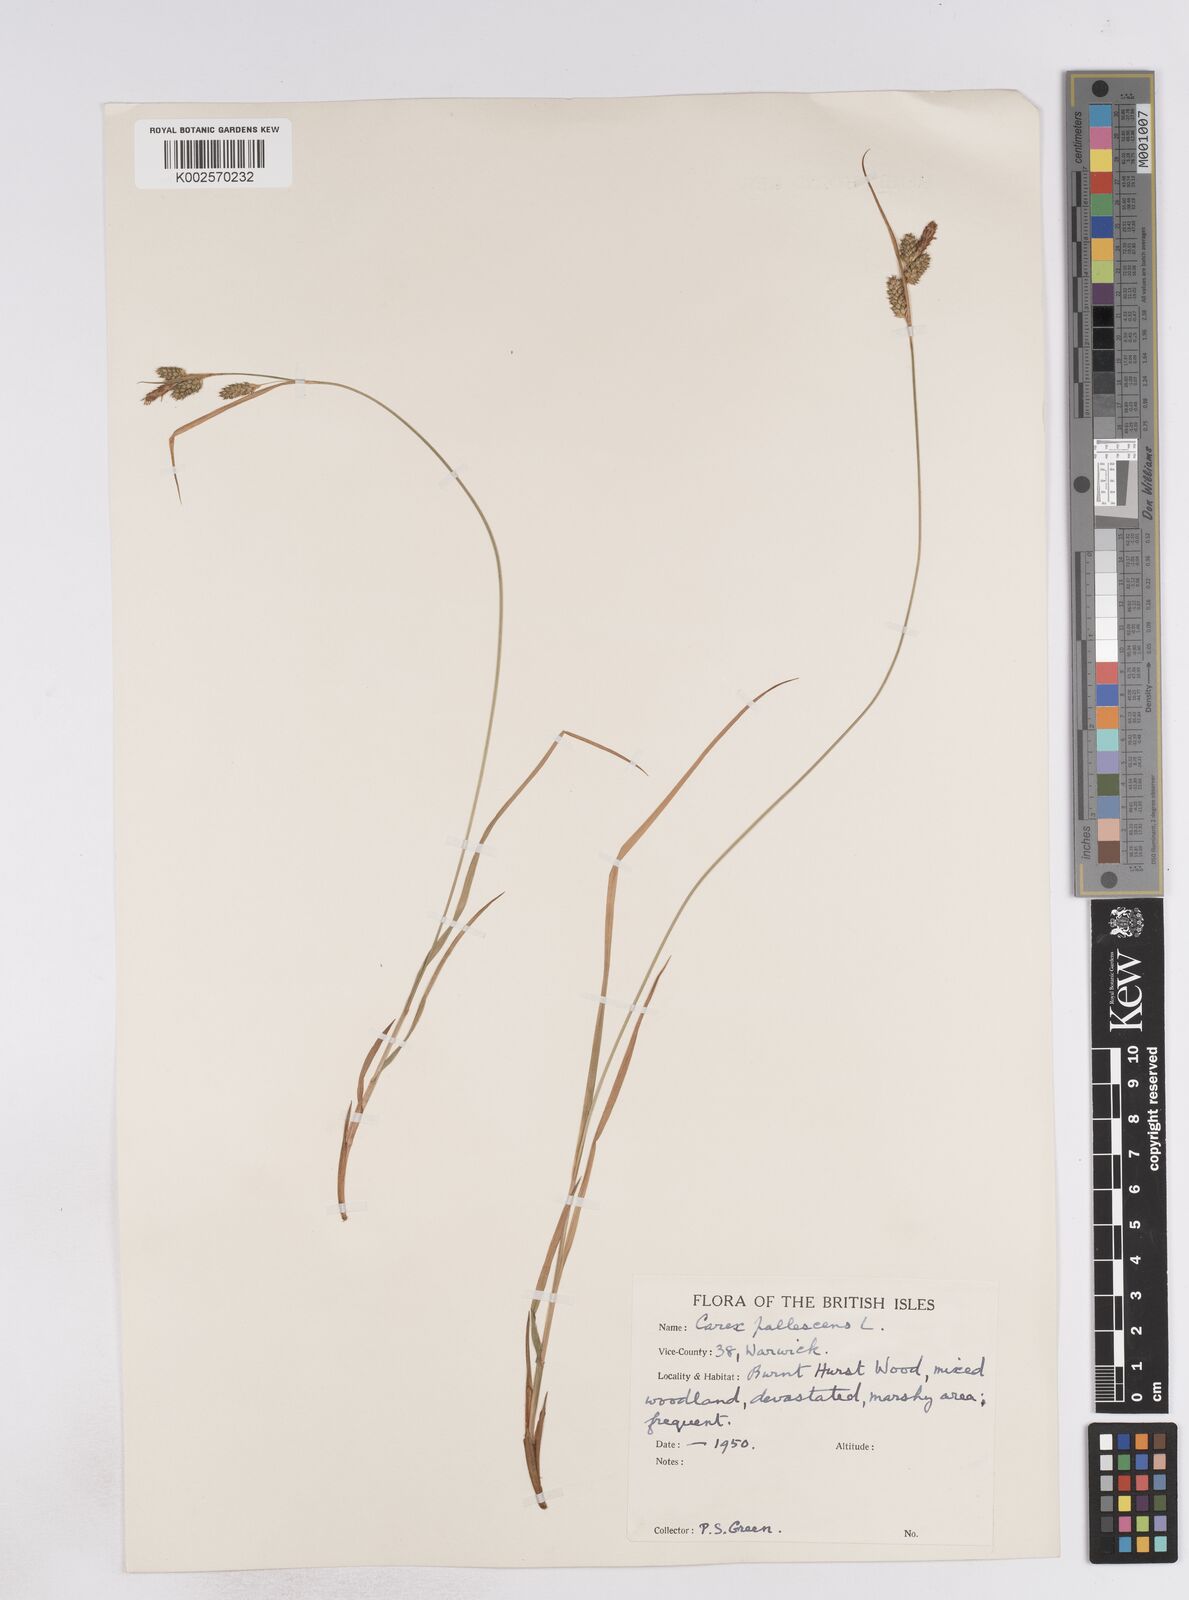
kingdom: Plantae
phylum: Tracheophyta
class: Liliopsida
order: Poales
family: Cyperaceae
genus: Carex
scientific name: Carex pallescens
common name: Pale sedge
